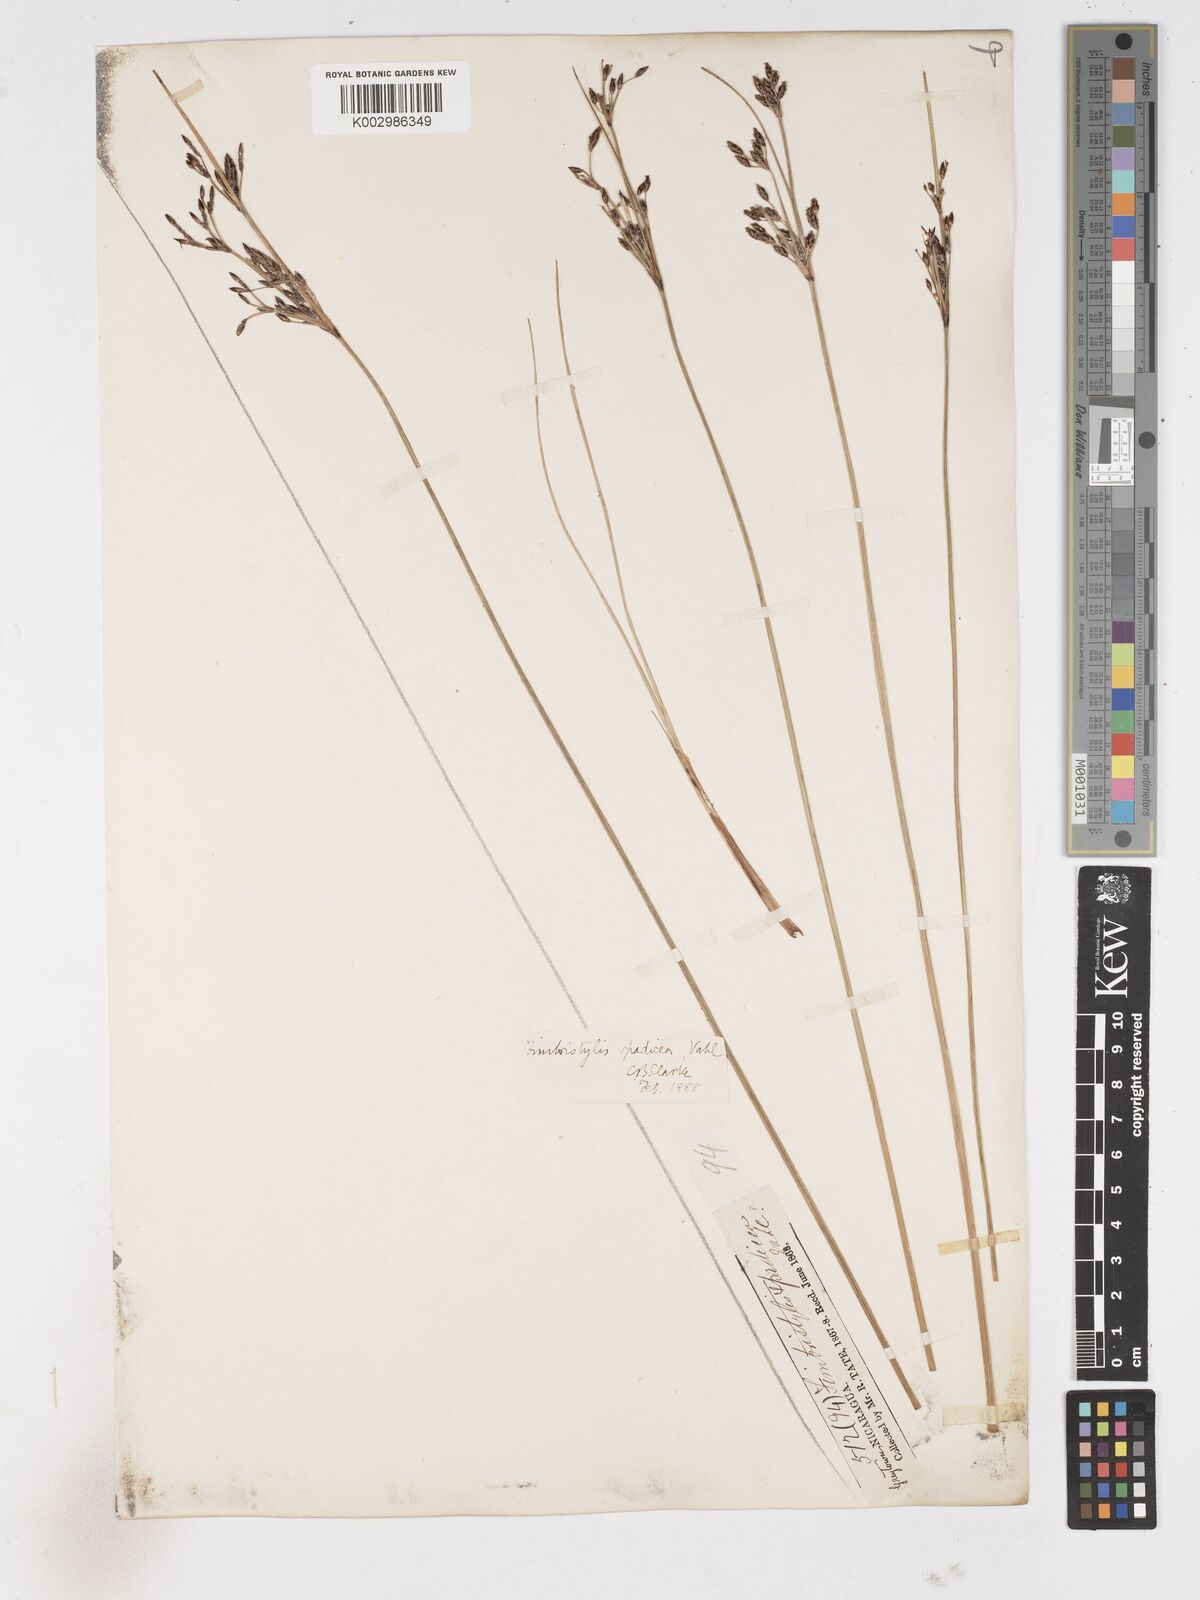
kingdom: Plantae
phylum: Tracheophyta
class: Liliopsida
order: Poales
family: Cyperaceae
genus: Fimbristylis
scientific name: Fimbristylis
